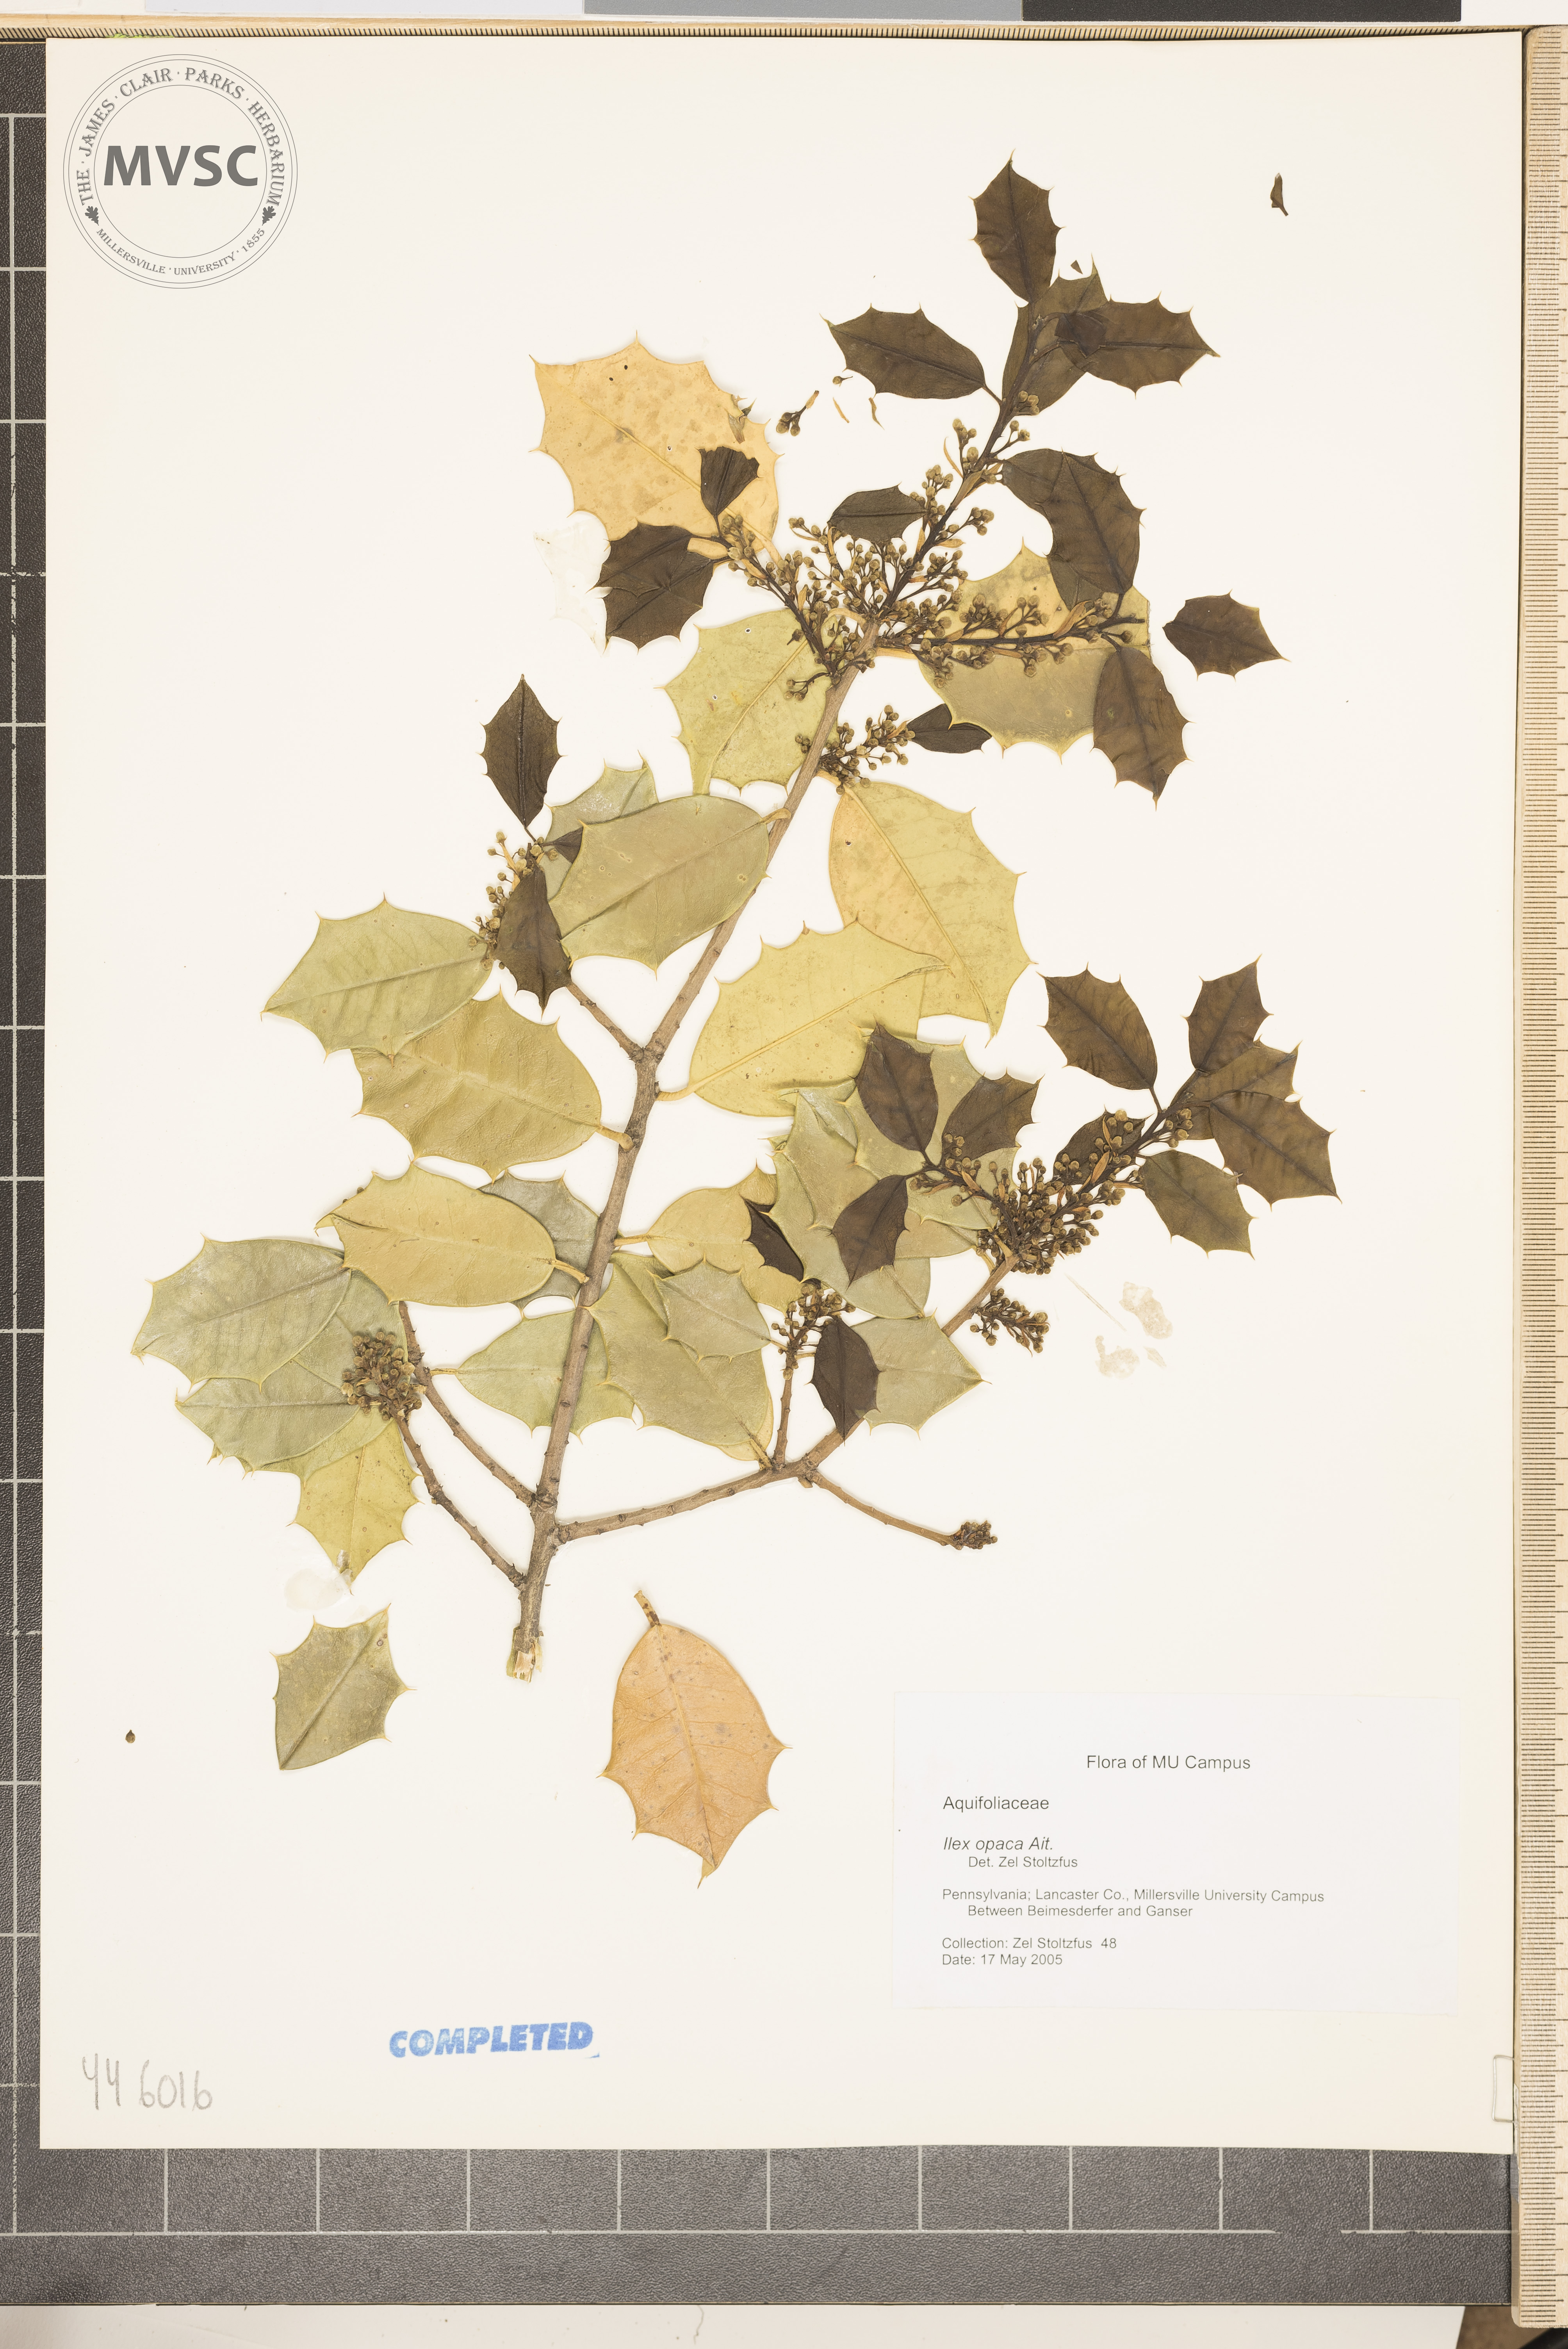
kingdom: Plantae
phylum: Tracheophyta
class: Magnoliopsida
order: Aquifoliales
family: Aquifoliaceae
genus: Ilex
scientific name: Ilex opaca
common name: American holly
